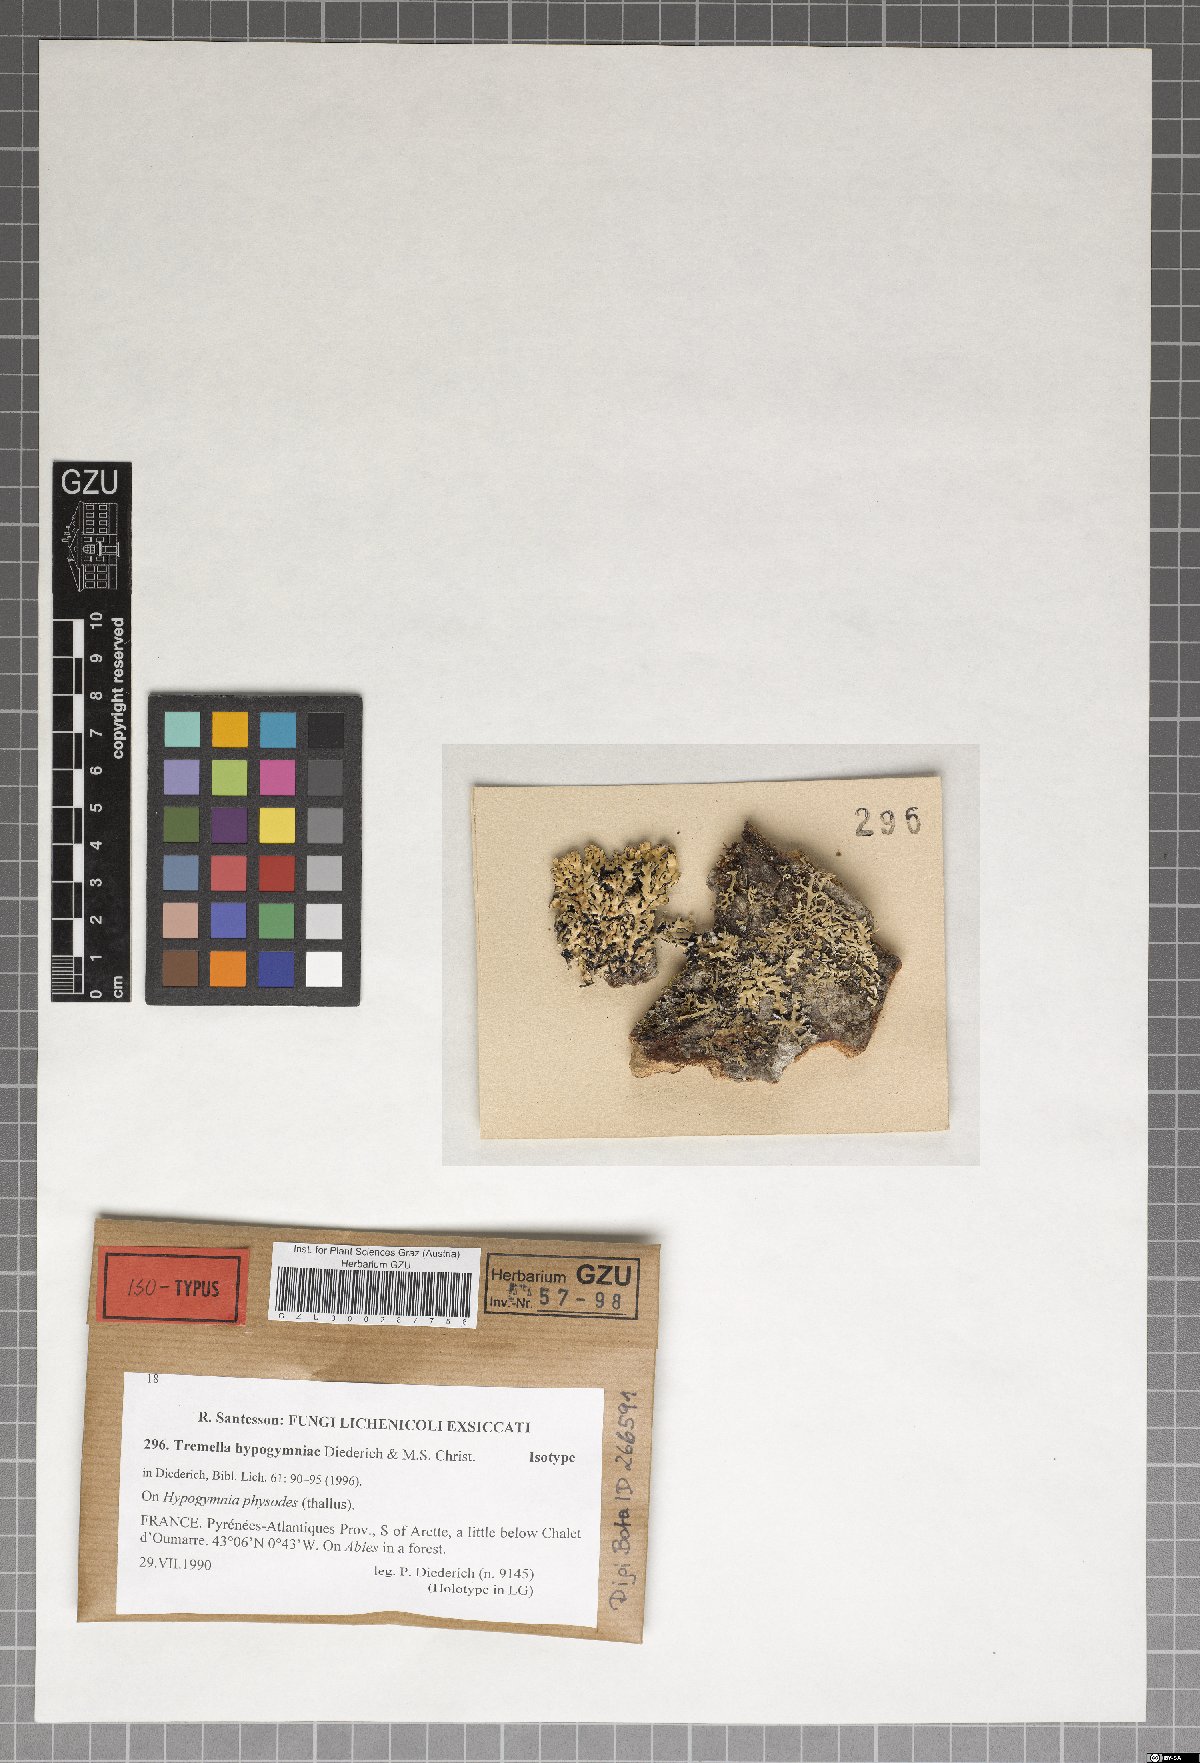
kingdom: Fungi
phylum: Basidiomycota
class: Tremellomycetes
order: Tremellales
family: Tremellaceae
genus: Tremella
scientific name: Tremella hypogymniae
